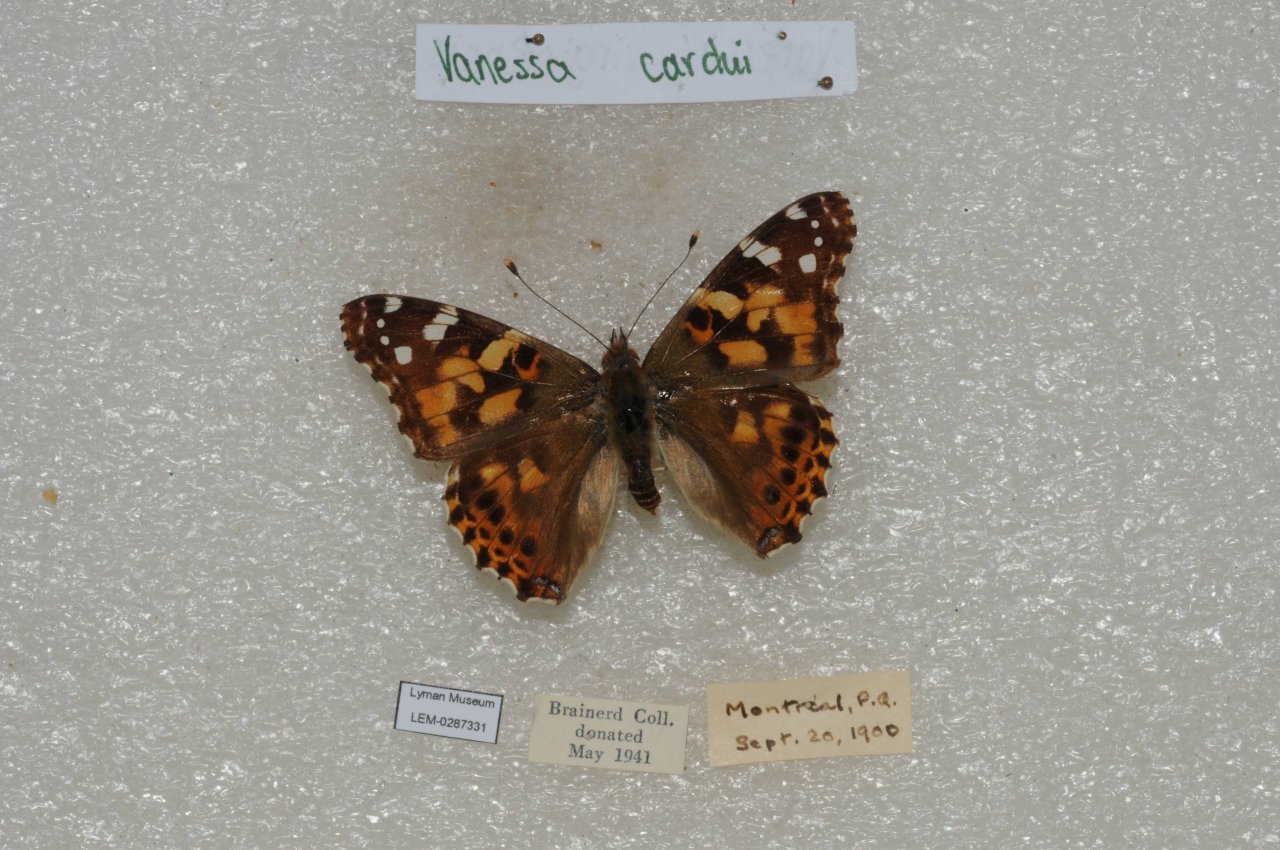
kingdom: Animalia
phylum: Arthropoda
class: Insecta
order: Lepidoptera
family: Nymphalidae
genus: Vanessa
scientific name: Vanessa cardui
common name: Painted Lady
